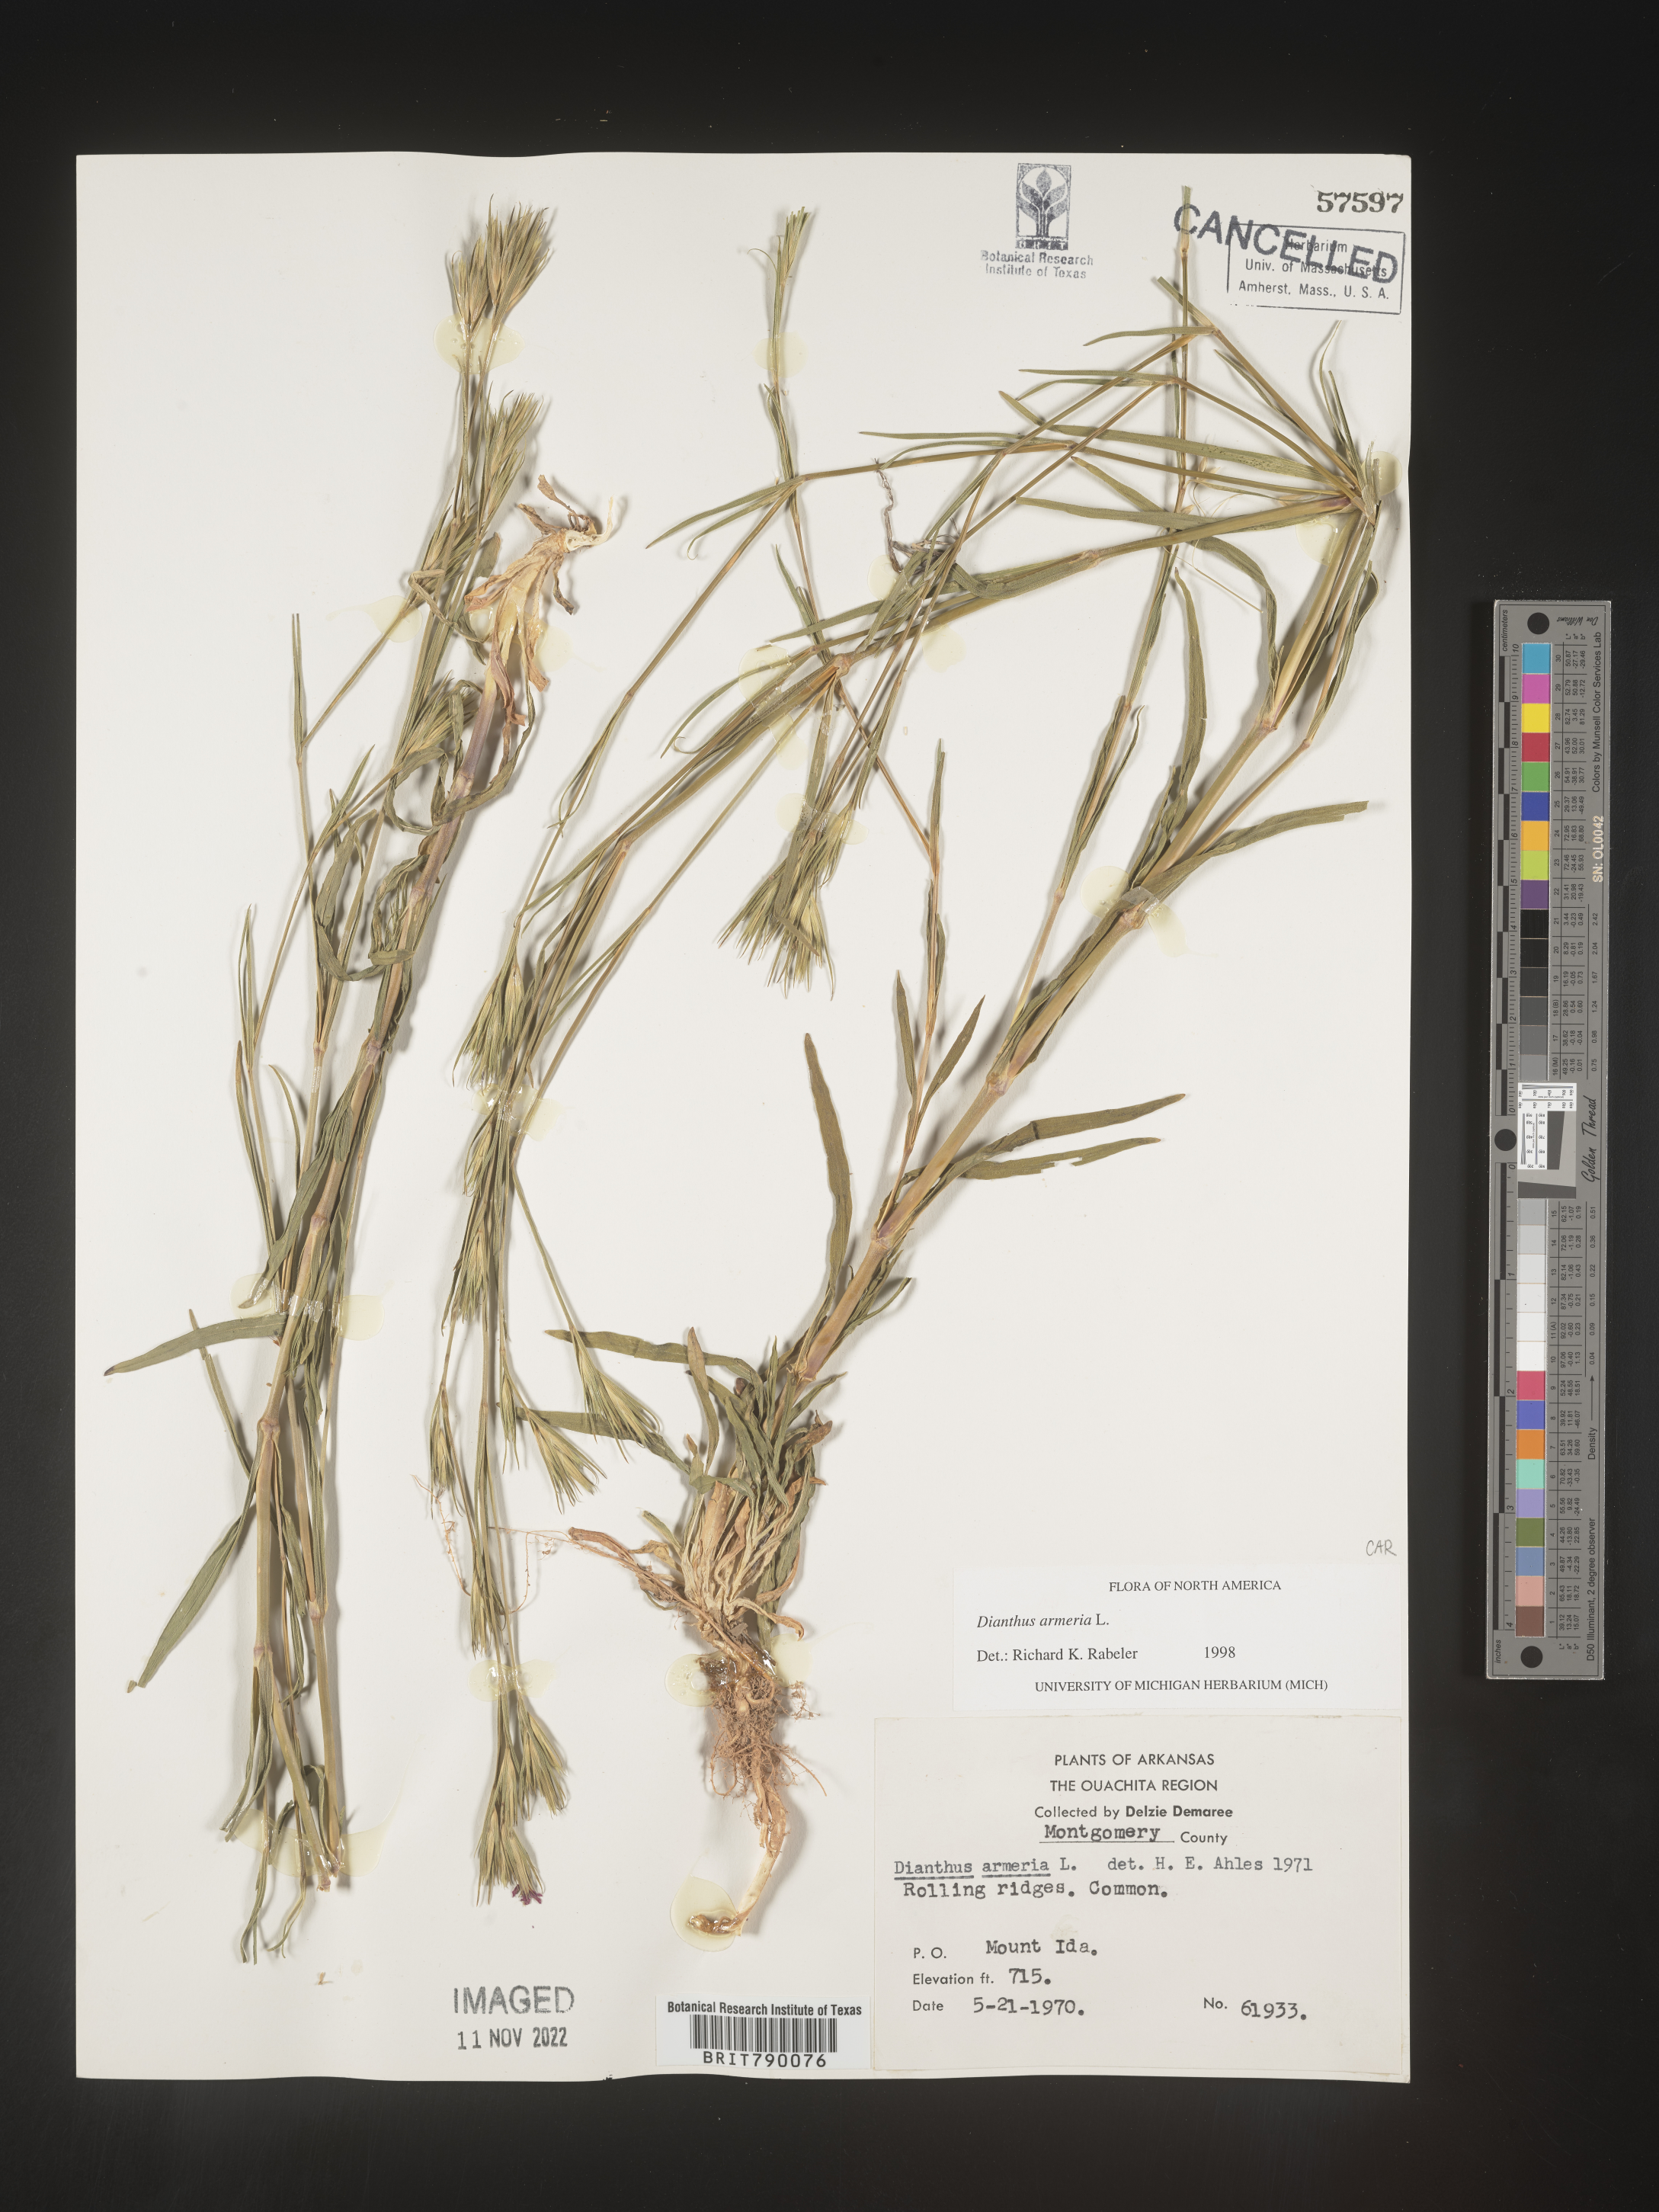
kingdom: Plantae
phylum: Tracheophyta
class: Magnoliopsida
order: Caryophyllales
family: Caryophyllaceae
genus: Dianthus
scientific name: Dianthus armeria
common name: Deptford pink
